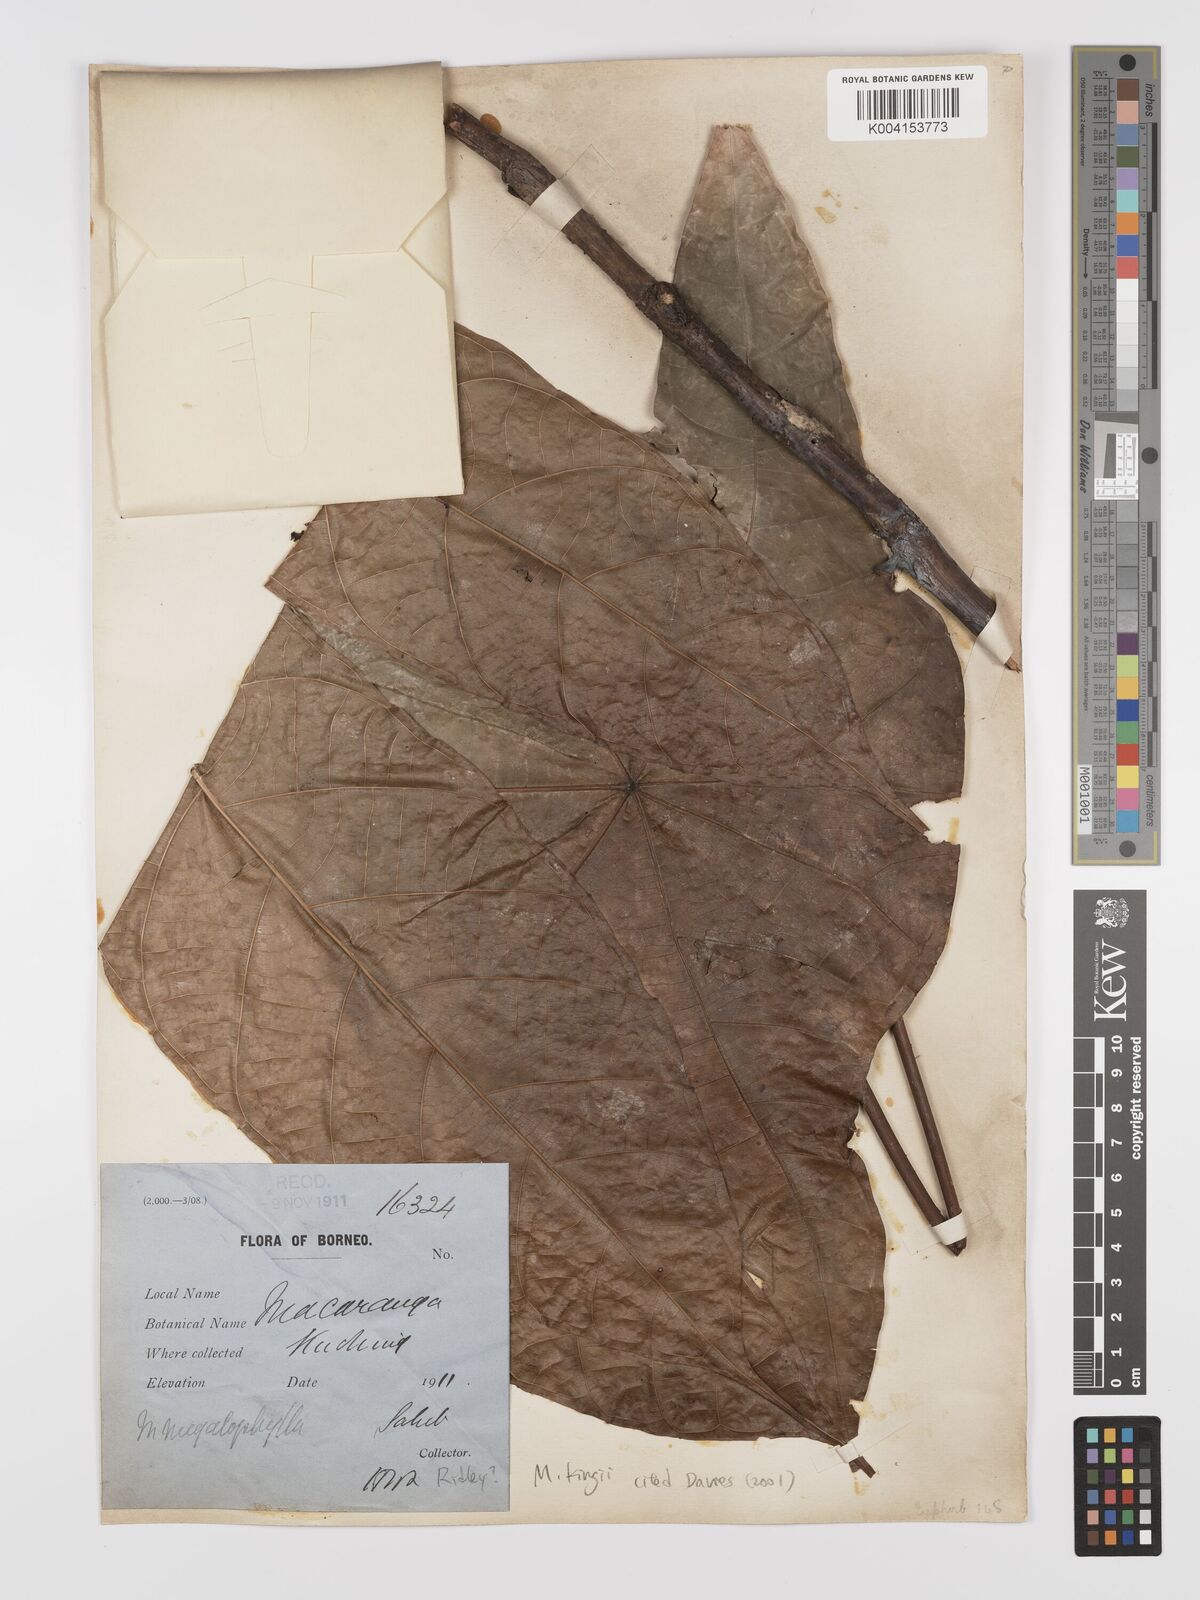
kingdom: Plantae
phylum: Tracheophyta
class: Magnoliopsida
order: Malpighiales
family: Euphorbiaceae
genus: Macaranga
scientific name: Macaranga kingii
